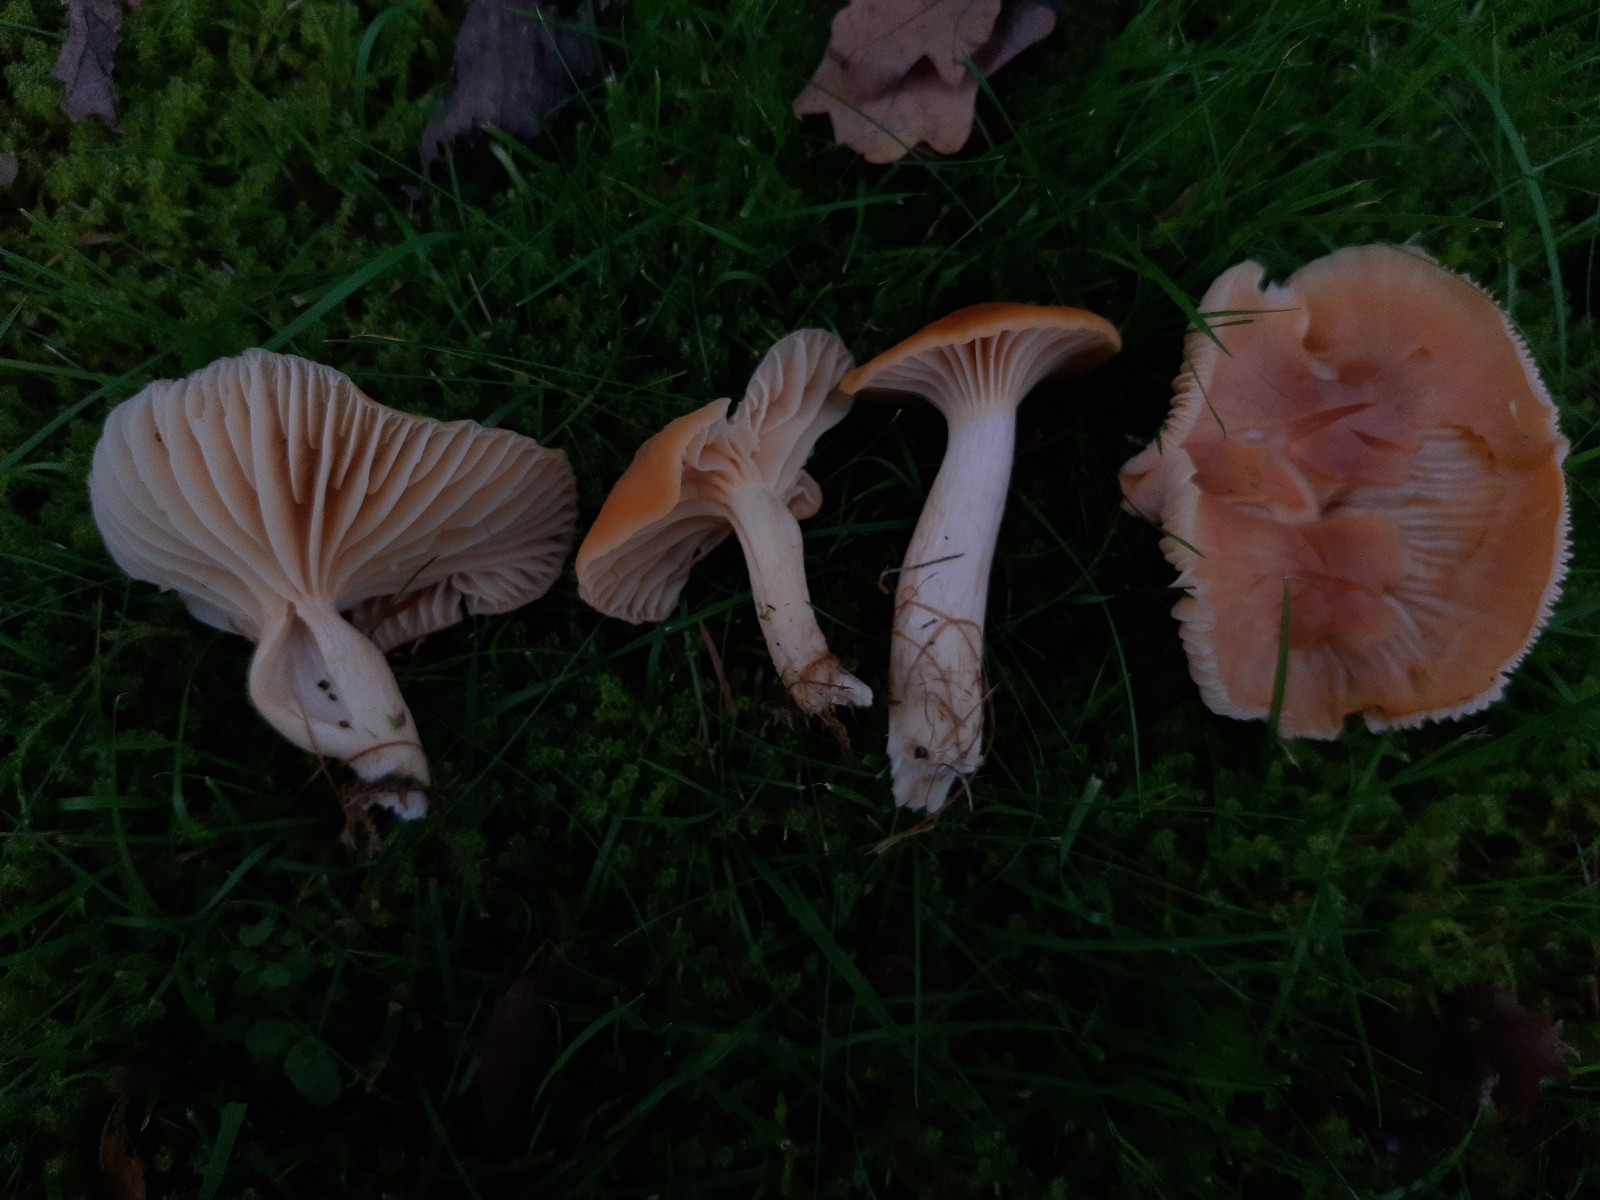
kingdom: Fungi
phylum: Basidiomycota
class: Agaricomycetes
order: Agaricales
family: Hygrophoraceae
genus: Cuphophyllus
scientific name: Cuphophyllus pratensis
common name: eng-vokshat
